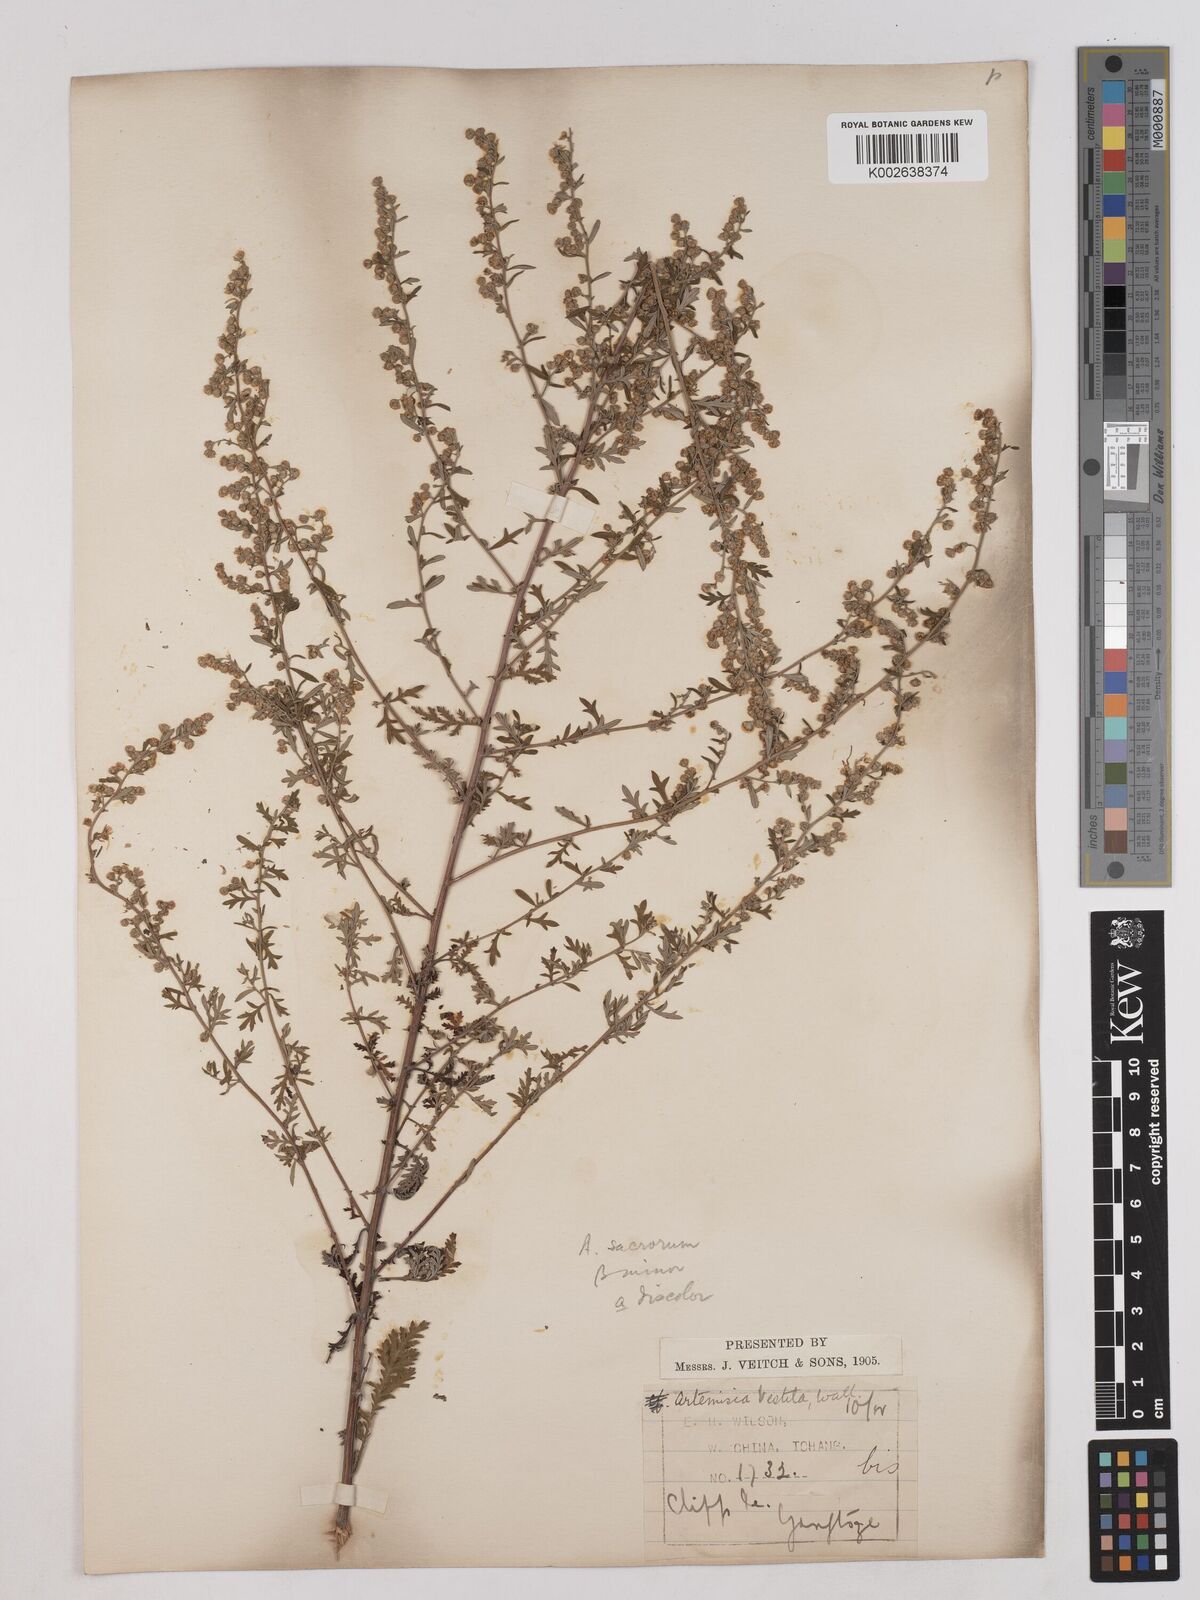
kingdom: Plantae
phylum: Tracheophyta
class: Magnoliopsida
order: Asterales
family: Asteraceae
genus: Artemisia
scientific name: Artemisia gmelinii
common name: Gmelin's wormwood
